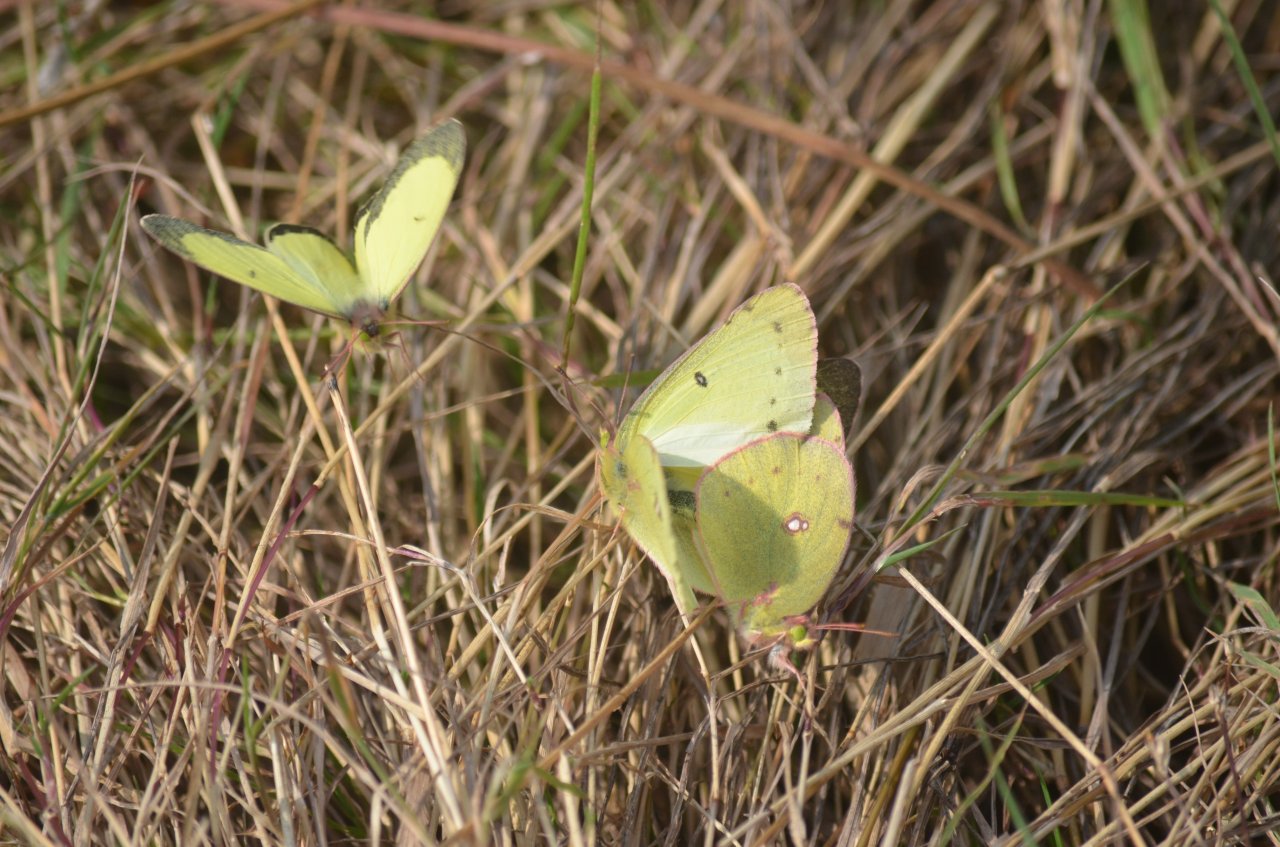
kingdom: Animalia
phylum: Arthropoda
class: Insecta
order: Lepidoptera
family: Pieridae
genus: Colias
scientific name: Colias philodice
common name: Clouded Sulphur
